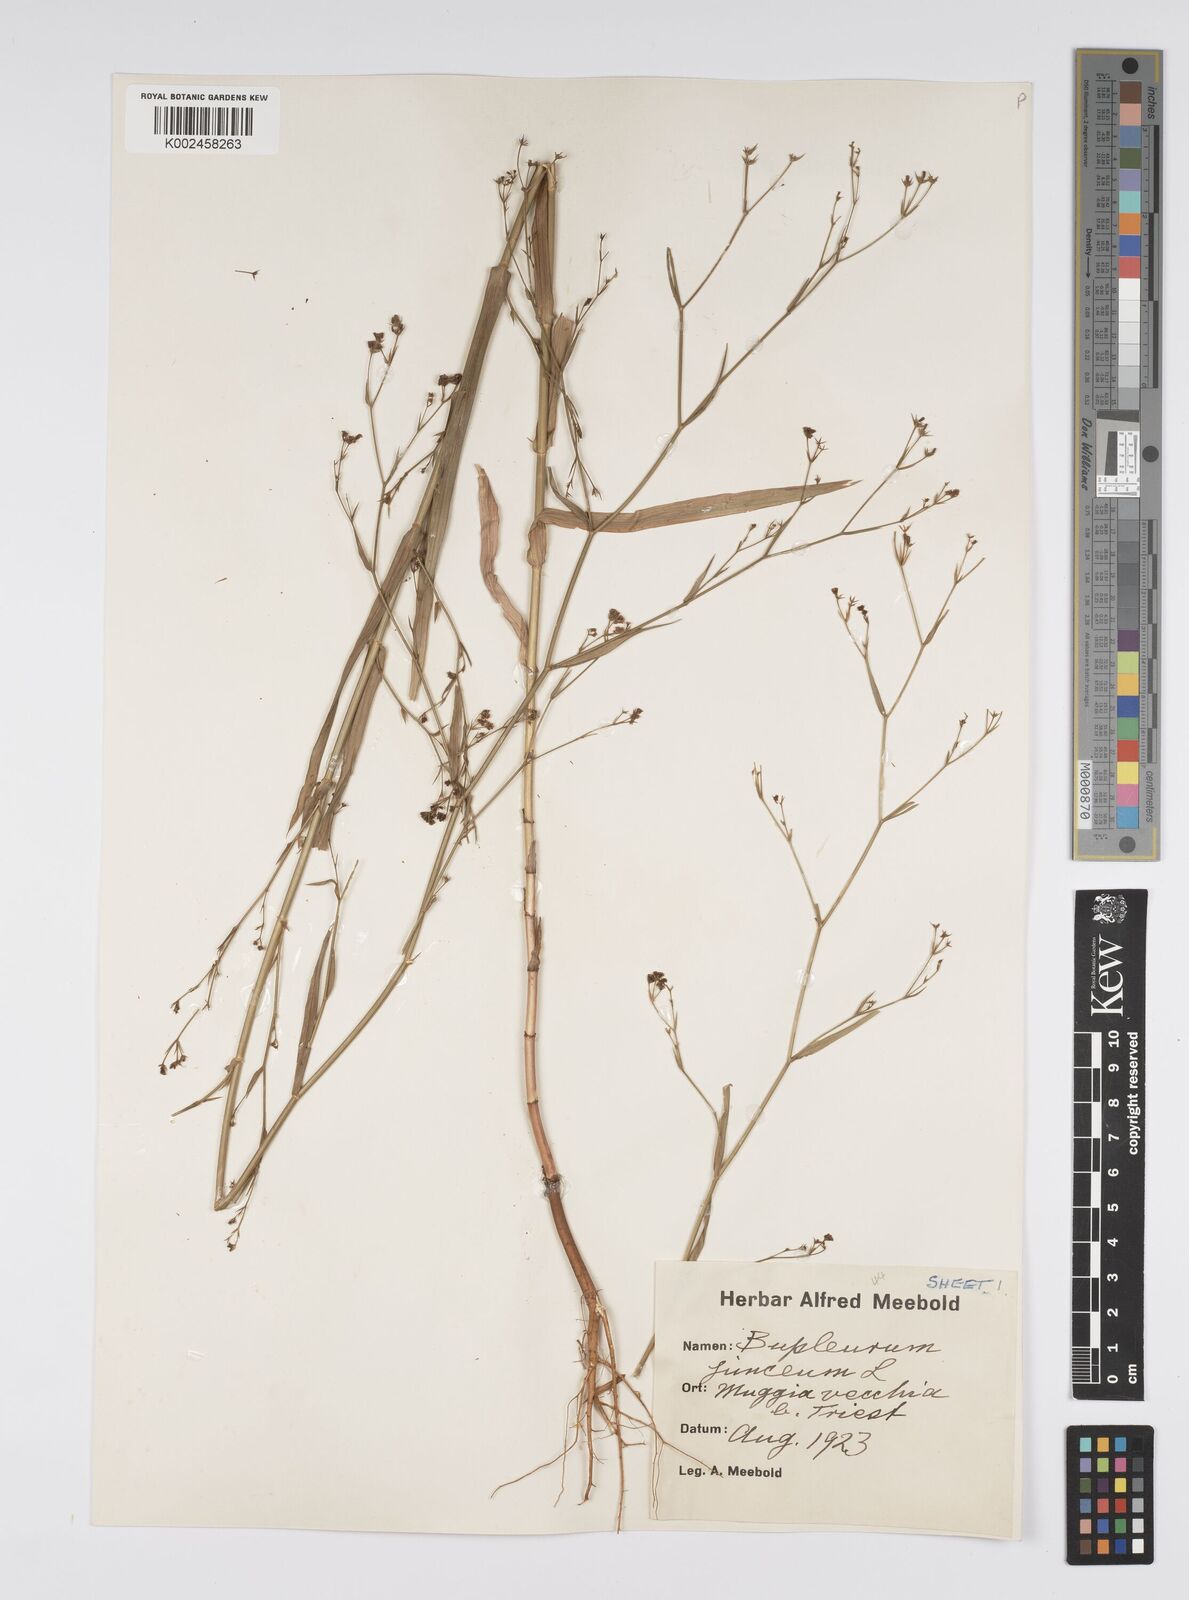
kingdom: Plantae
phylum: Tracheophyta
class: Magnoliopsida
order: Apiales
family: Apiaceae
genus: Bupleurum
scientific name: Bupleurum praealtum
